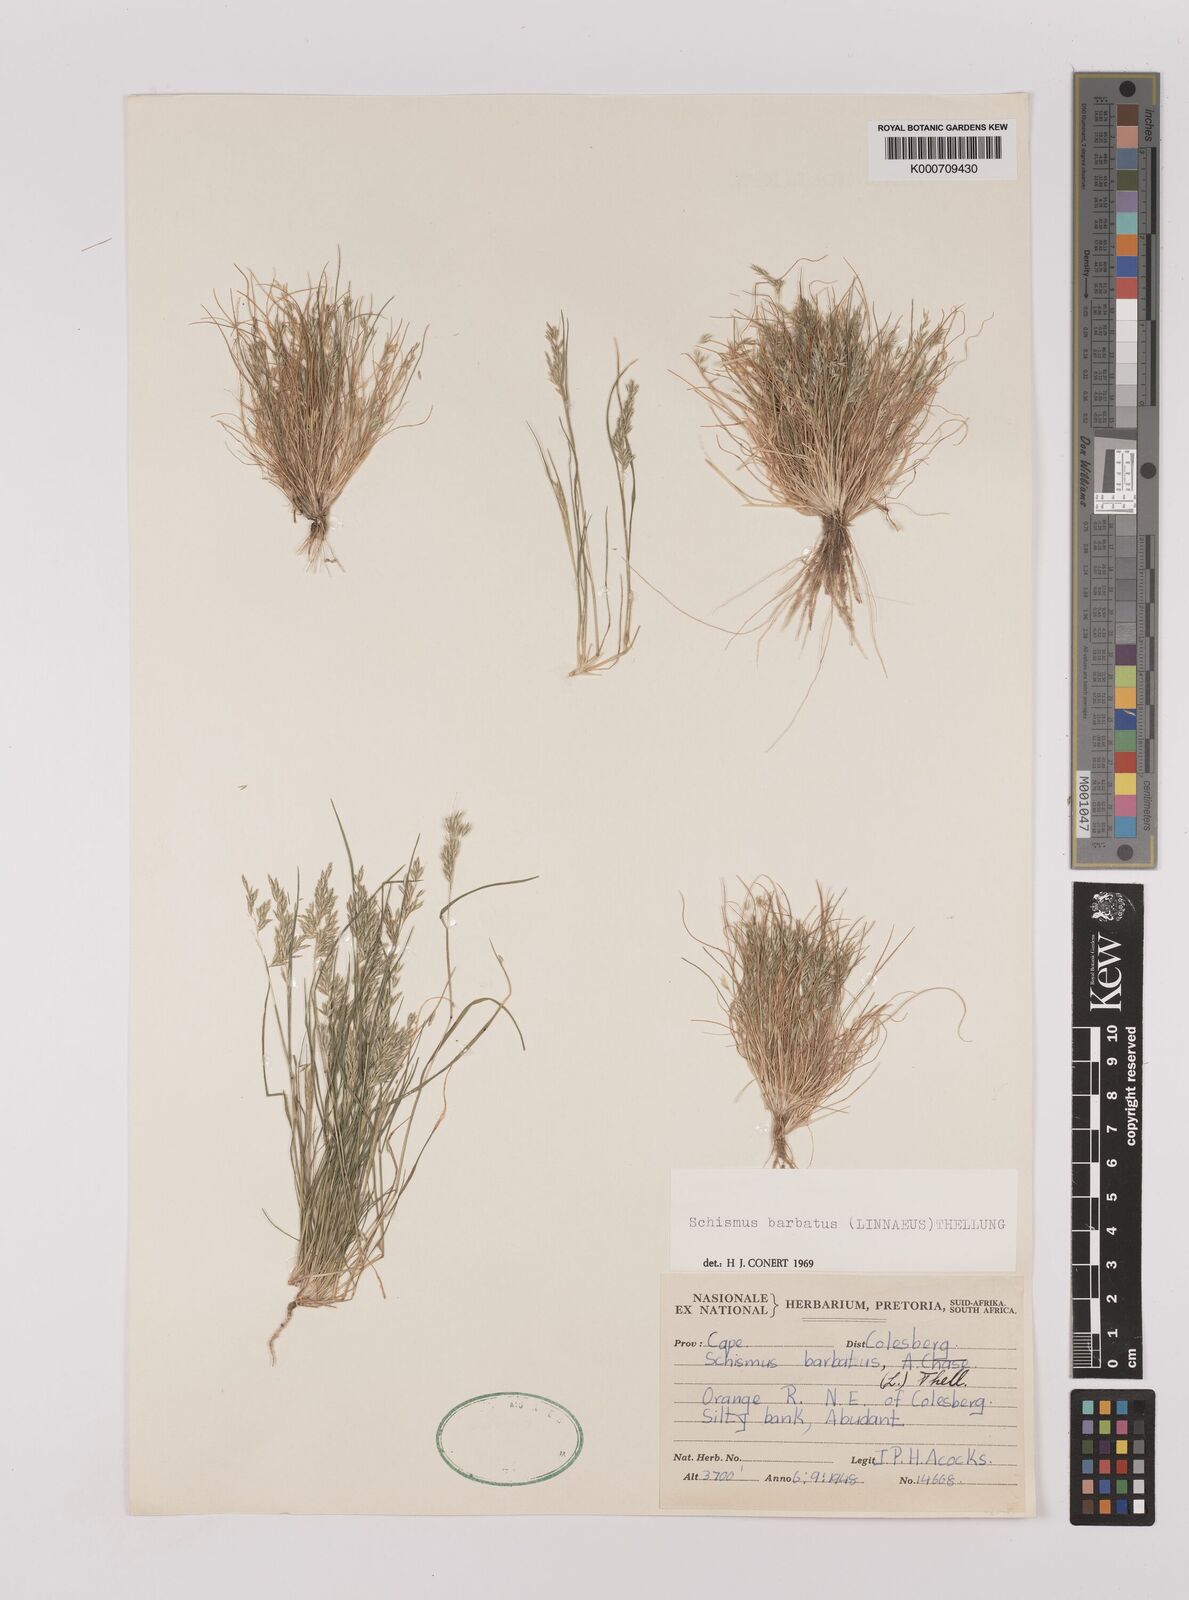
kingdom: Plantae
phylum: Tracheophyta
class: Liliopsida
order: Poales
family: Poaceae
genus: Schismus
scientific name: Schismus barbatus
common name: Kelch-grass
